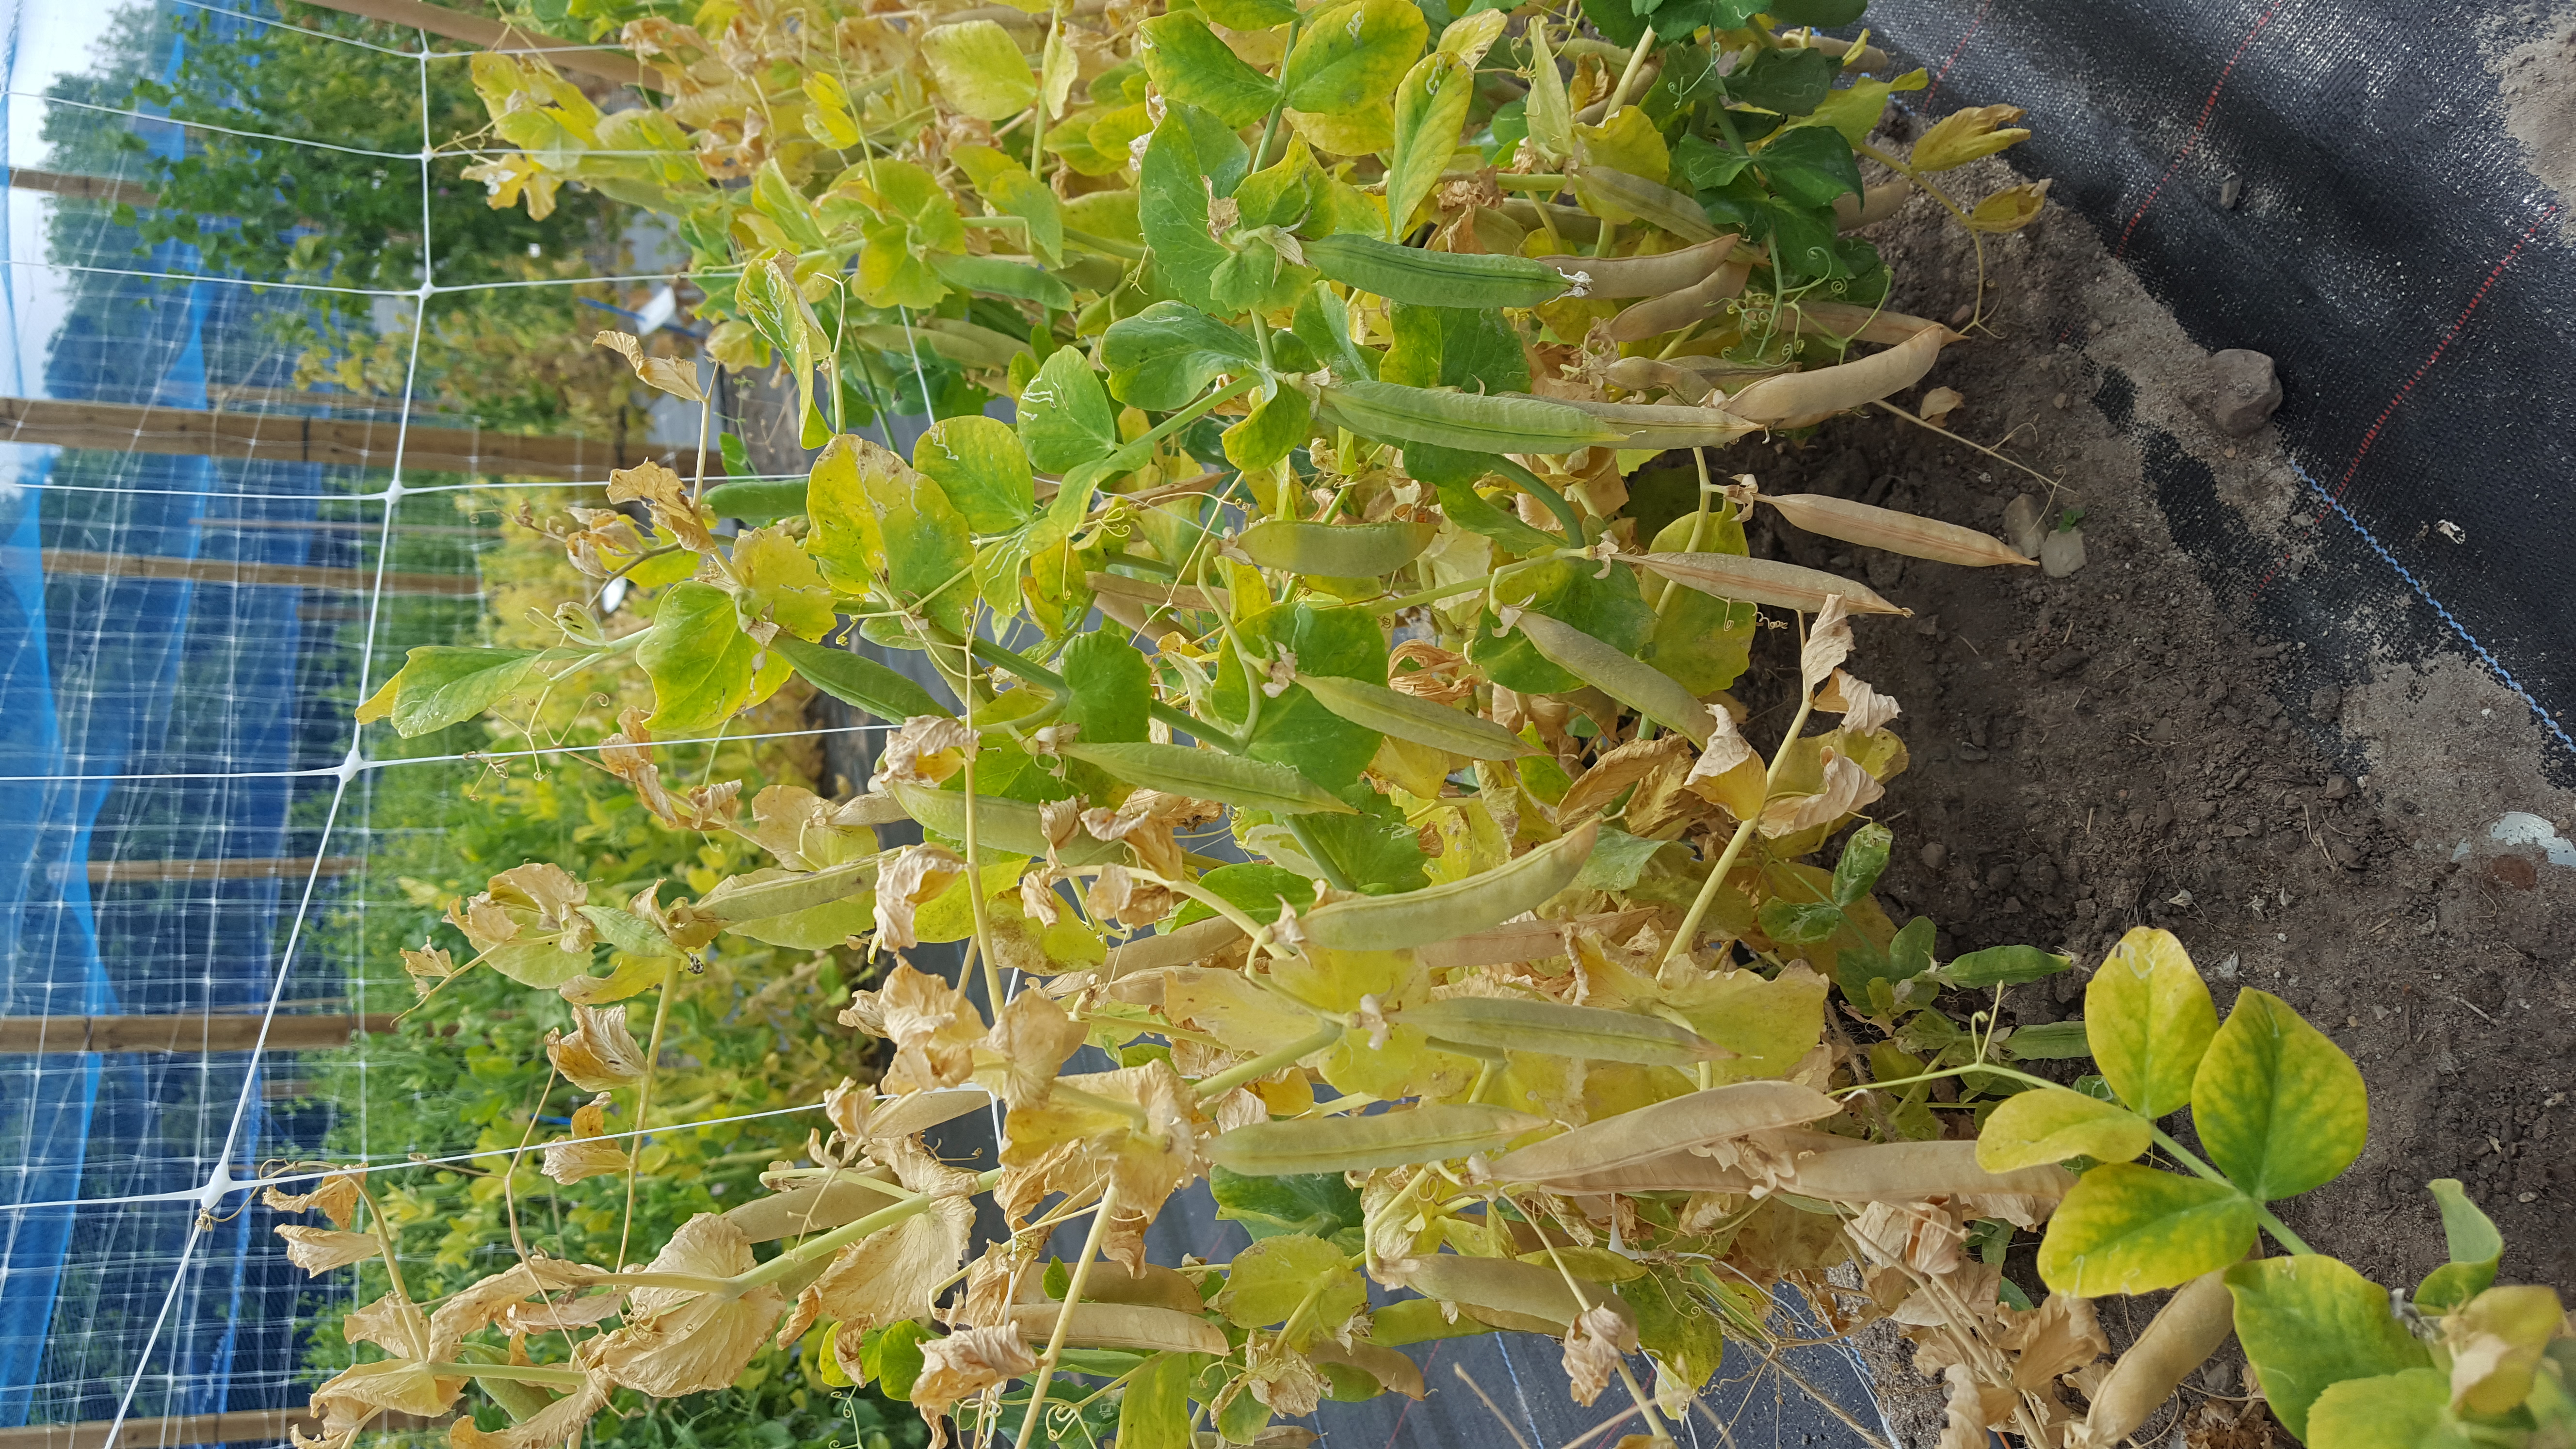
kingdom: Plantae
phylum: Tracheophyta
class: Magnoliopsida
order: Fabales
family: Fabaceae
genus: Lathyrus
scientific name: Lathyrus oleraceus
